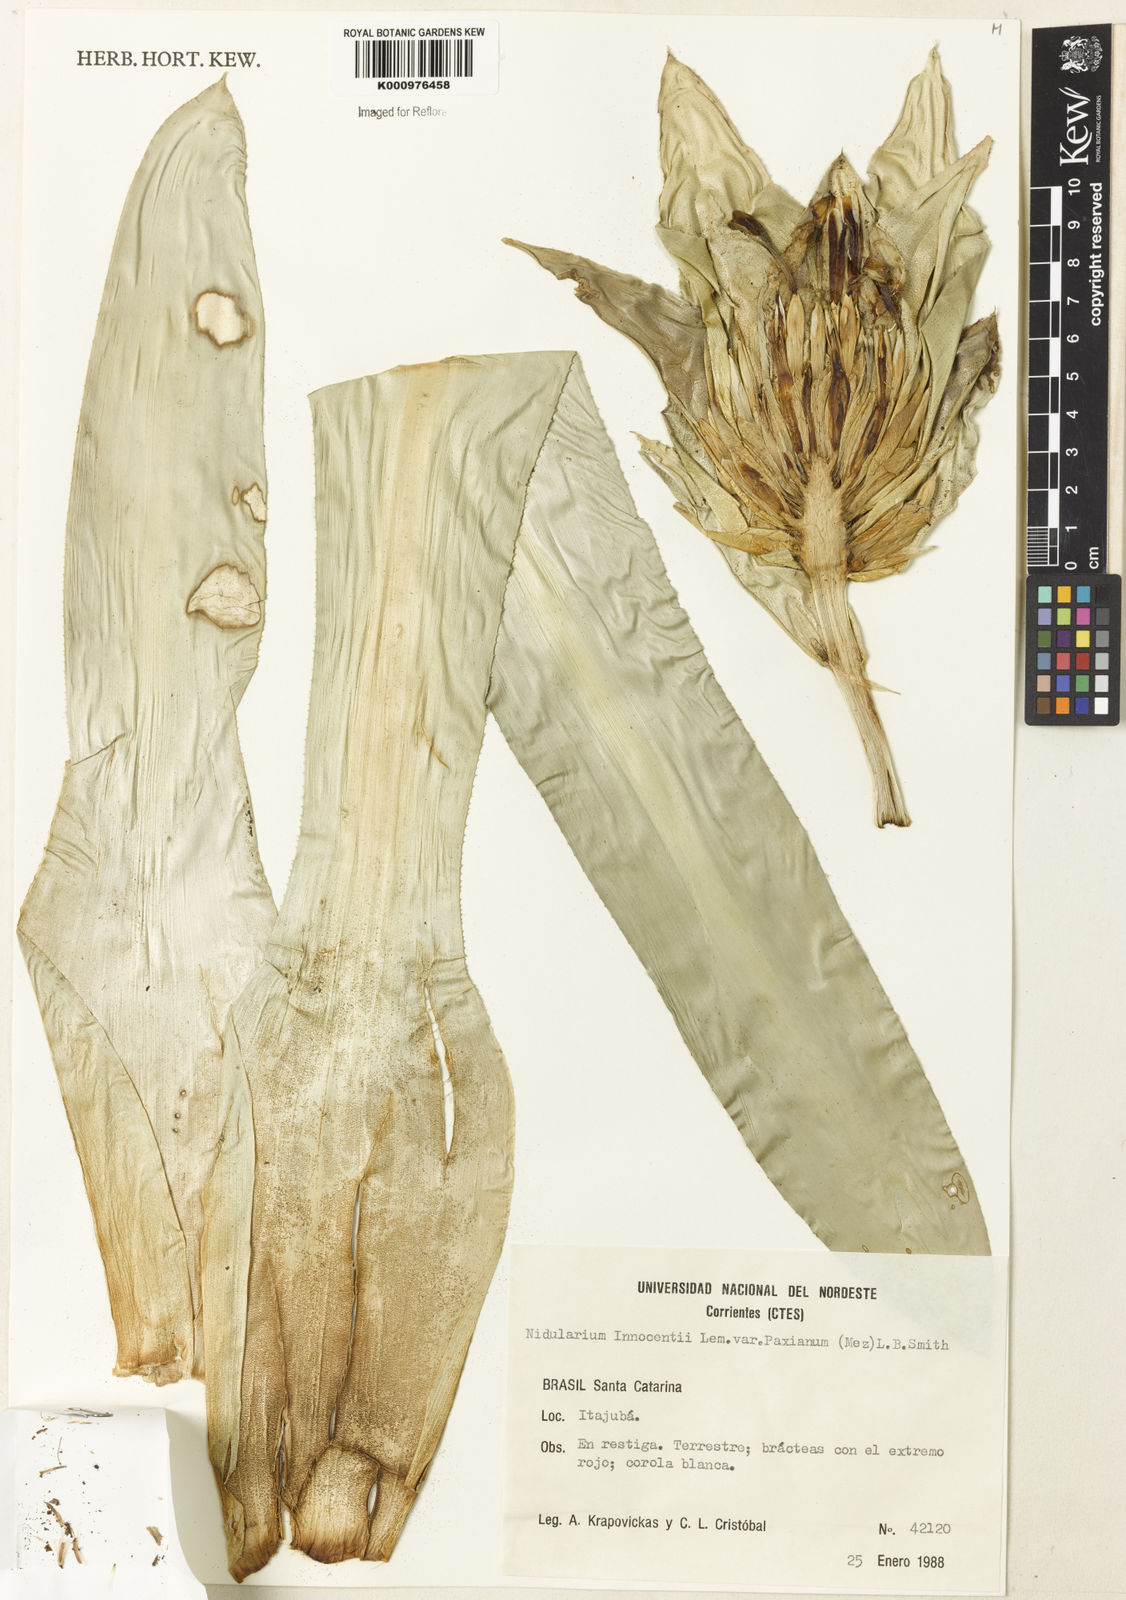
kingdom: Plantae
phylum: Tracheophyta
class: Liliopsida
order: Poales
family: Bromeliaceae
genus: Nidularium
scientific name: Nidularium innocentii
